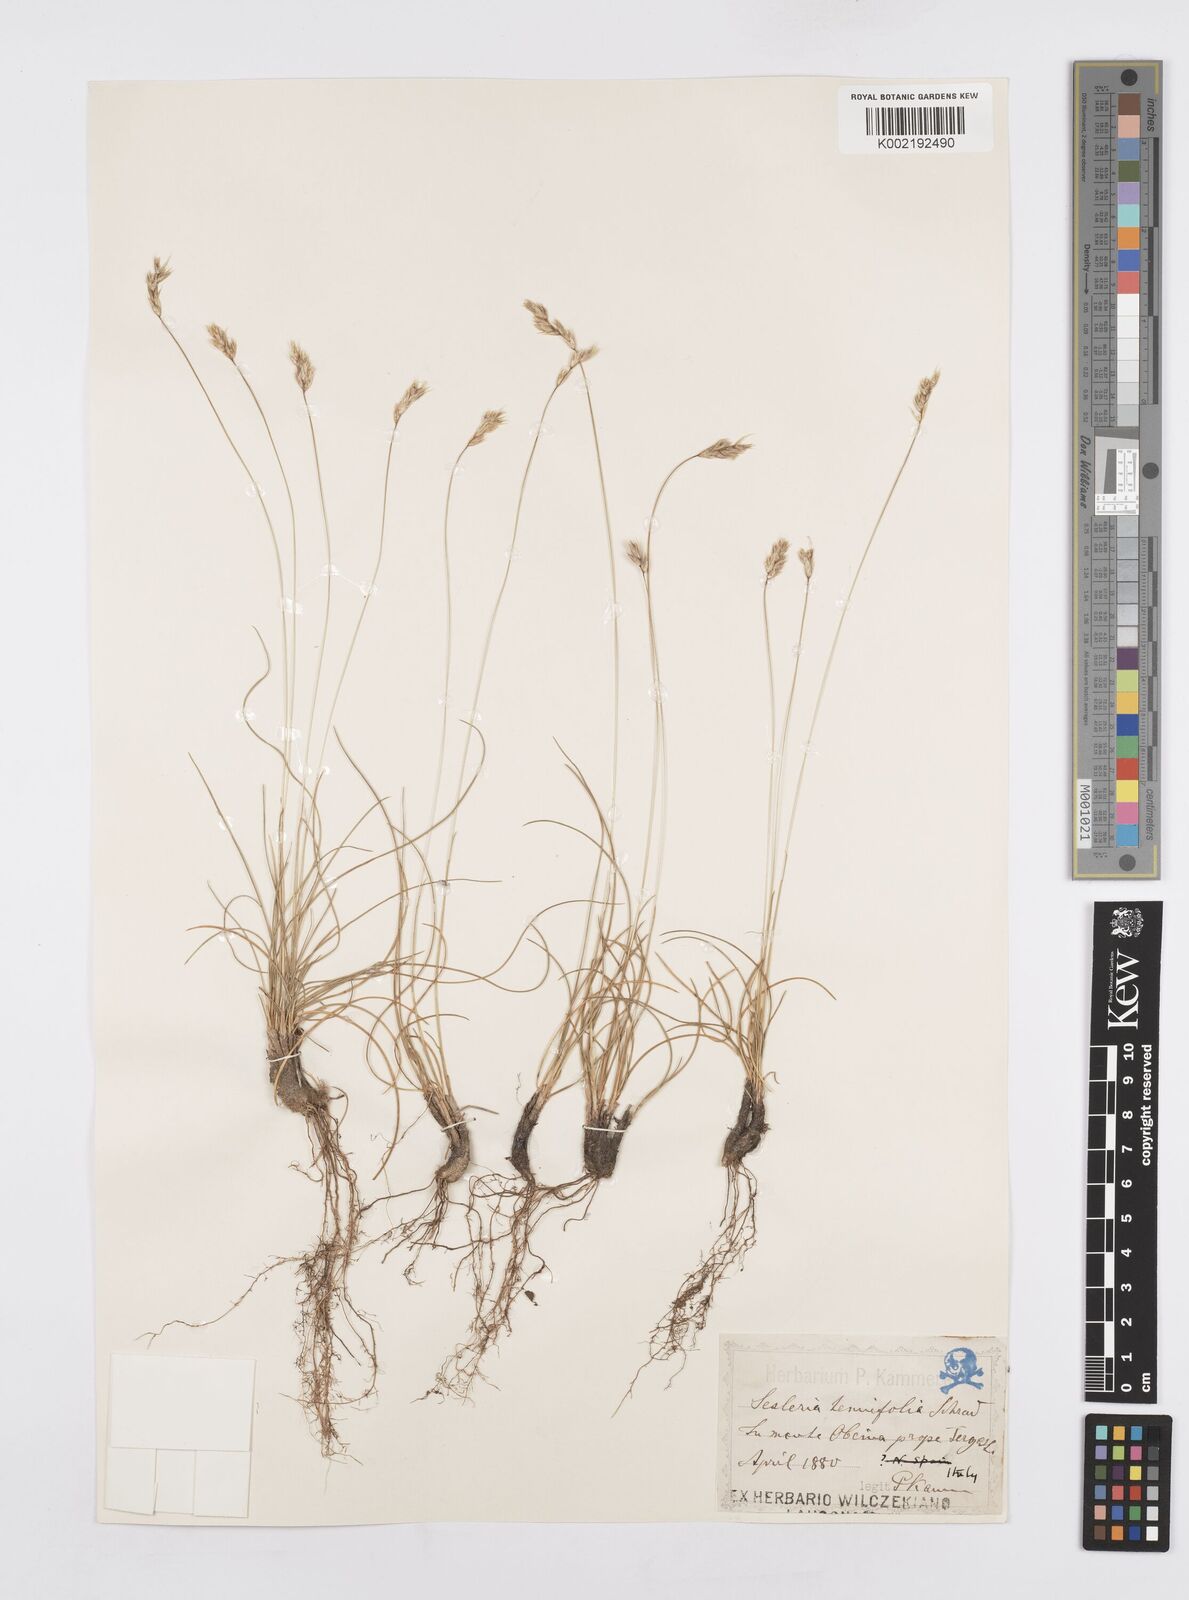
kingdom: Plantae
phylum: Tracheophyta
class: Liliopsida
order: Poales
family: Poaceae
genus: Sesleria
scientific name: Sesleria juncifolia
